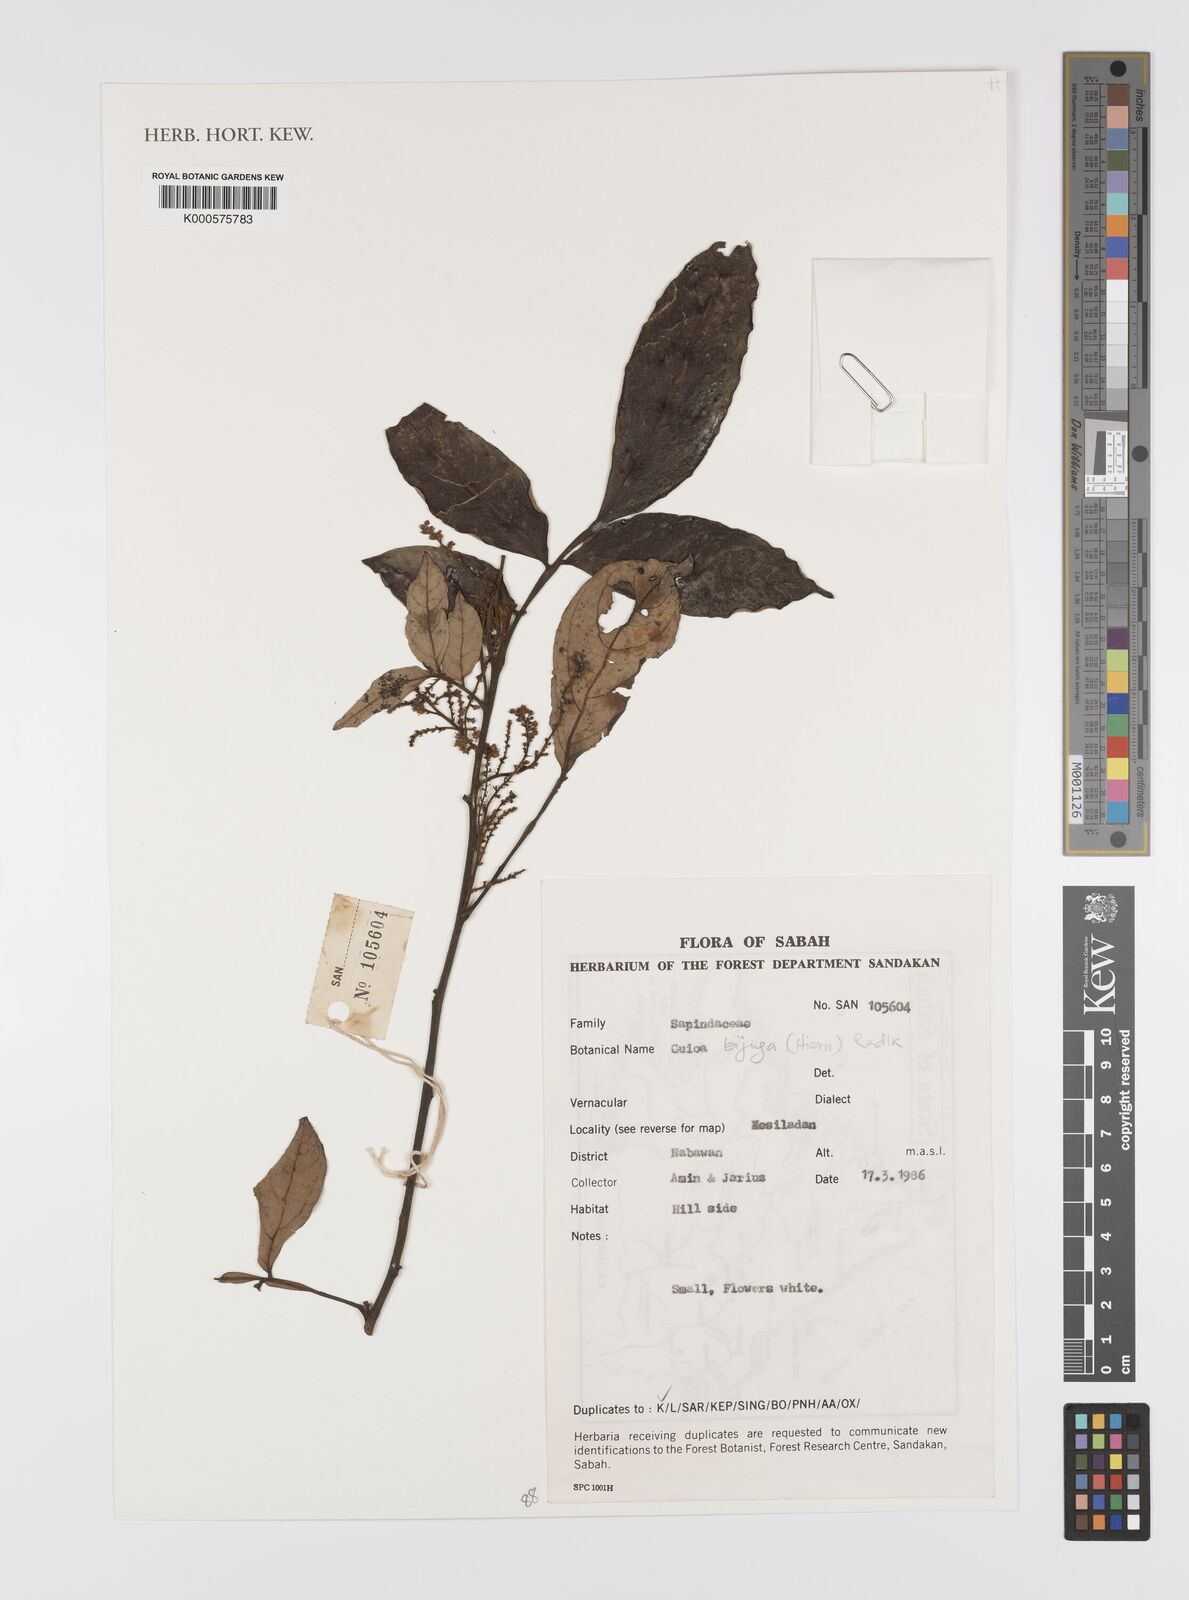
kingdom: Plantae
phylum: Tracheophyta
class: Magnoliopsida
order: Sapindales
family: Sapindaceae
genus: Guioa
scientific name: Guioa bijuga
